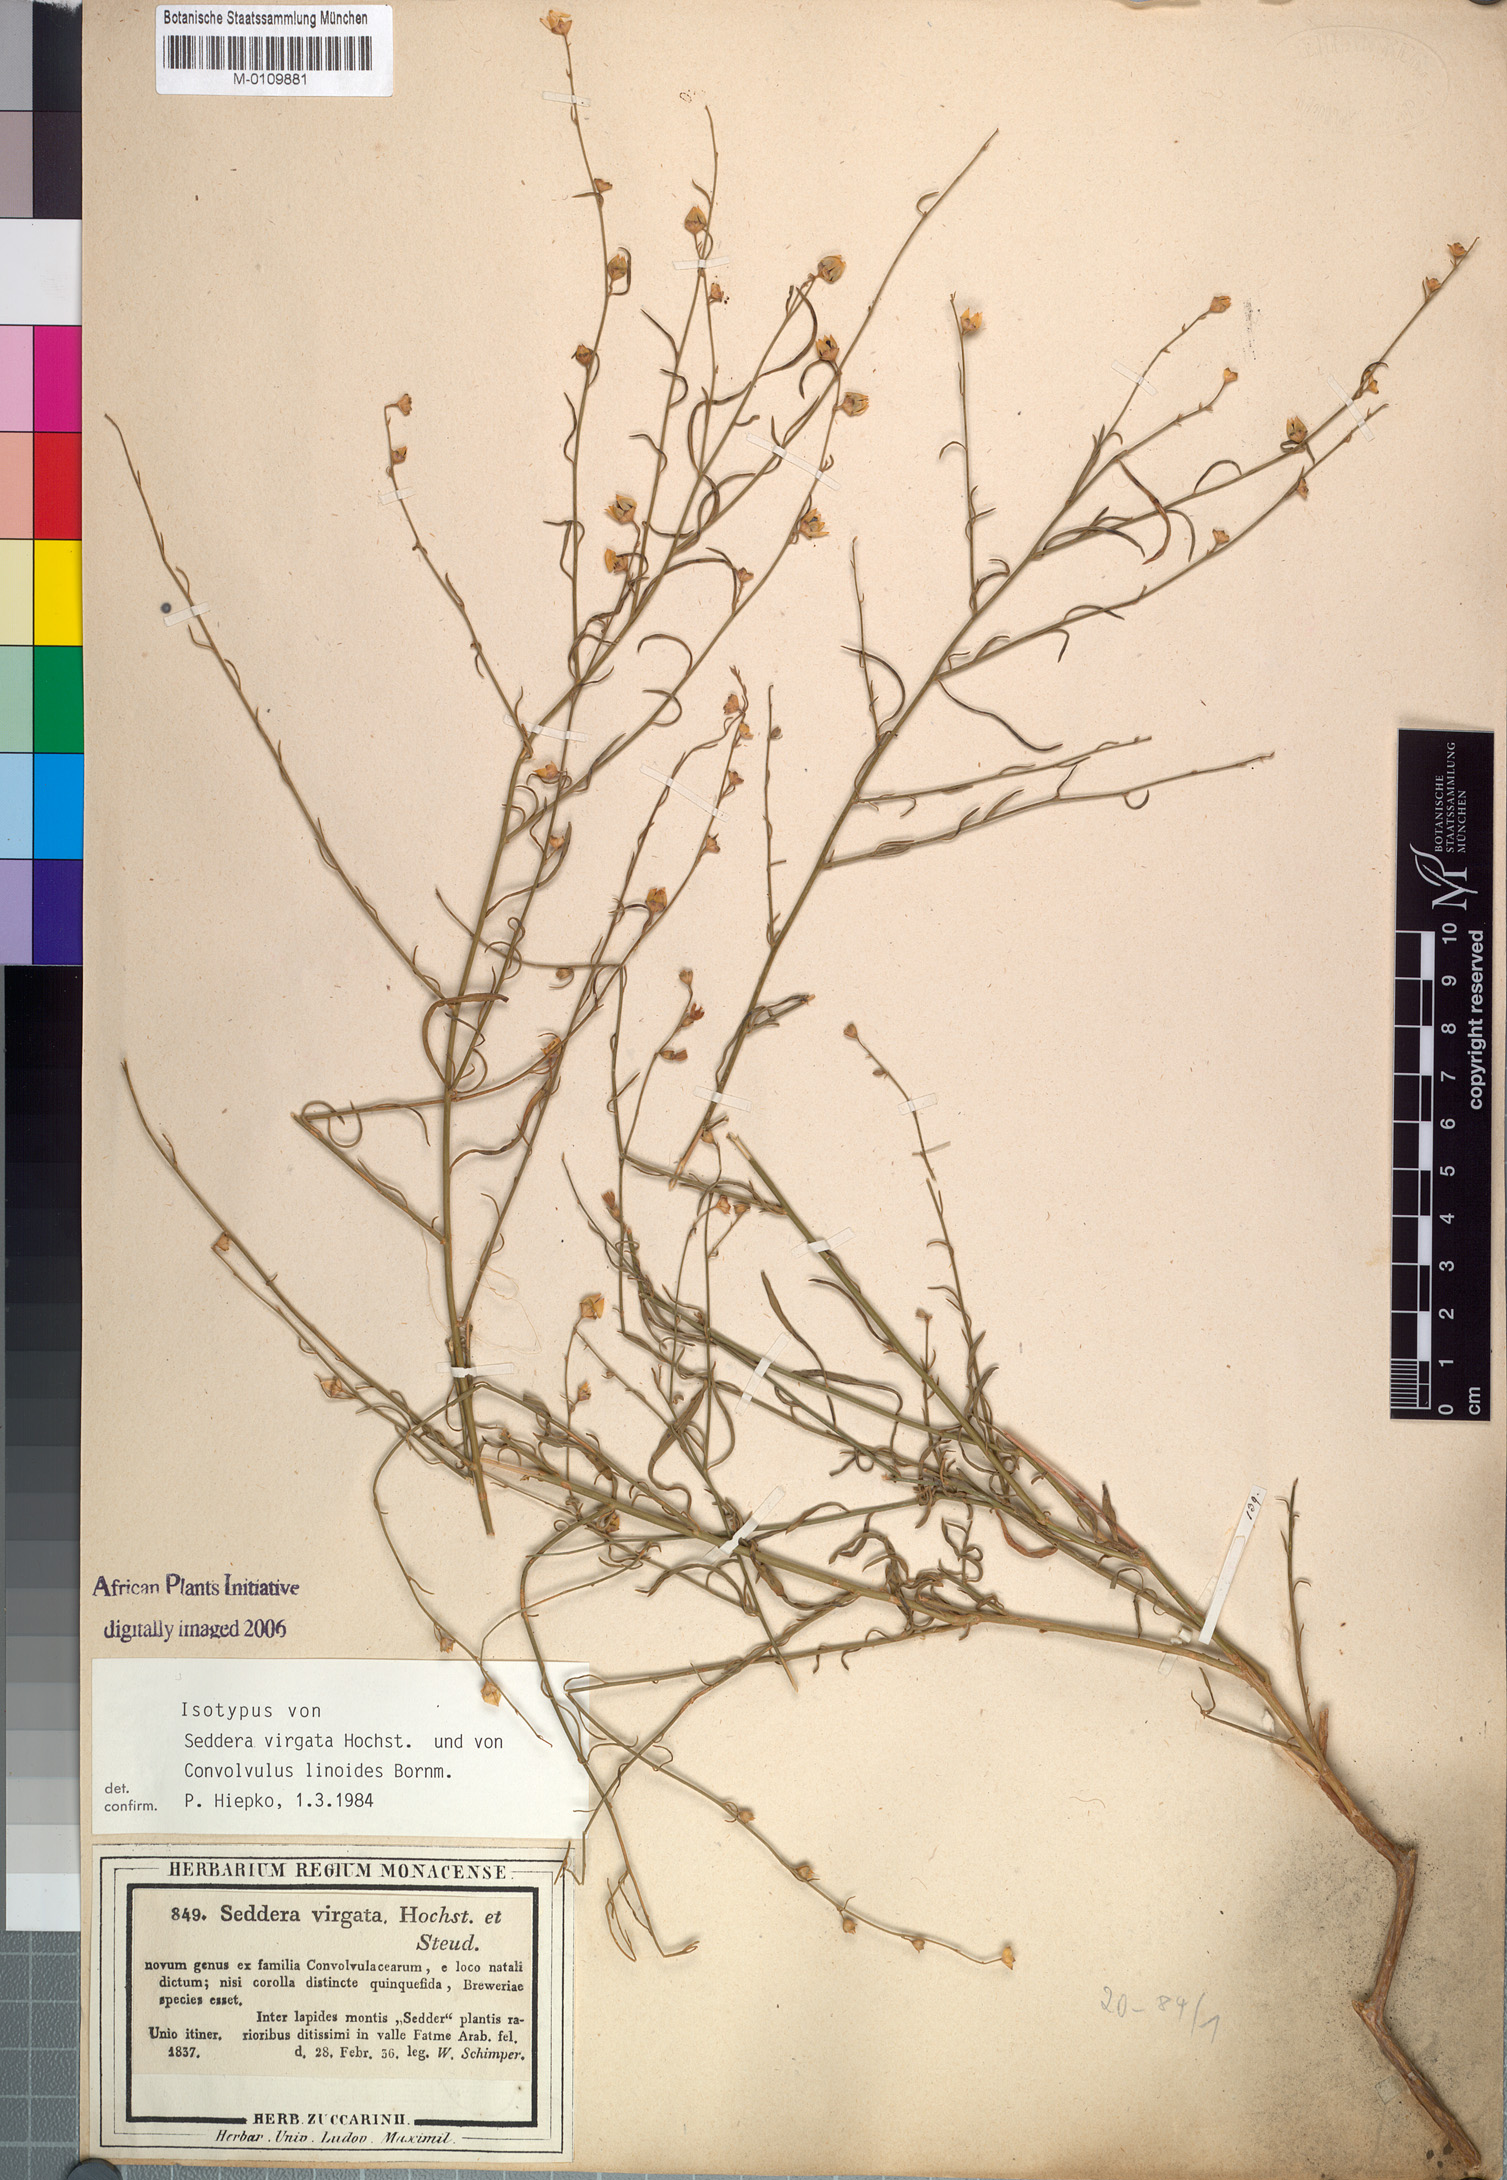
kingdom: Plantae
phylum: Tracheophyta
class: Magnoliopsida
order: Solanales
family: Convolvulaceae
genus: Seddera
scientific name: Seddera virgata
